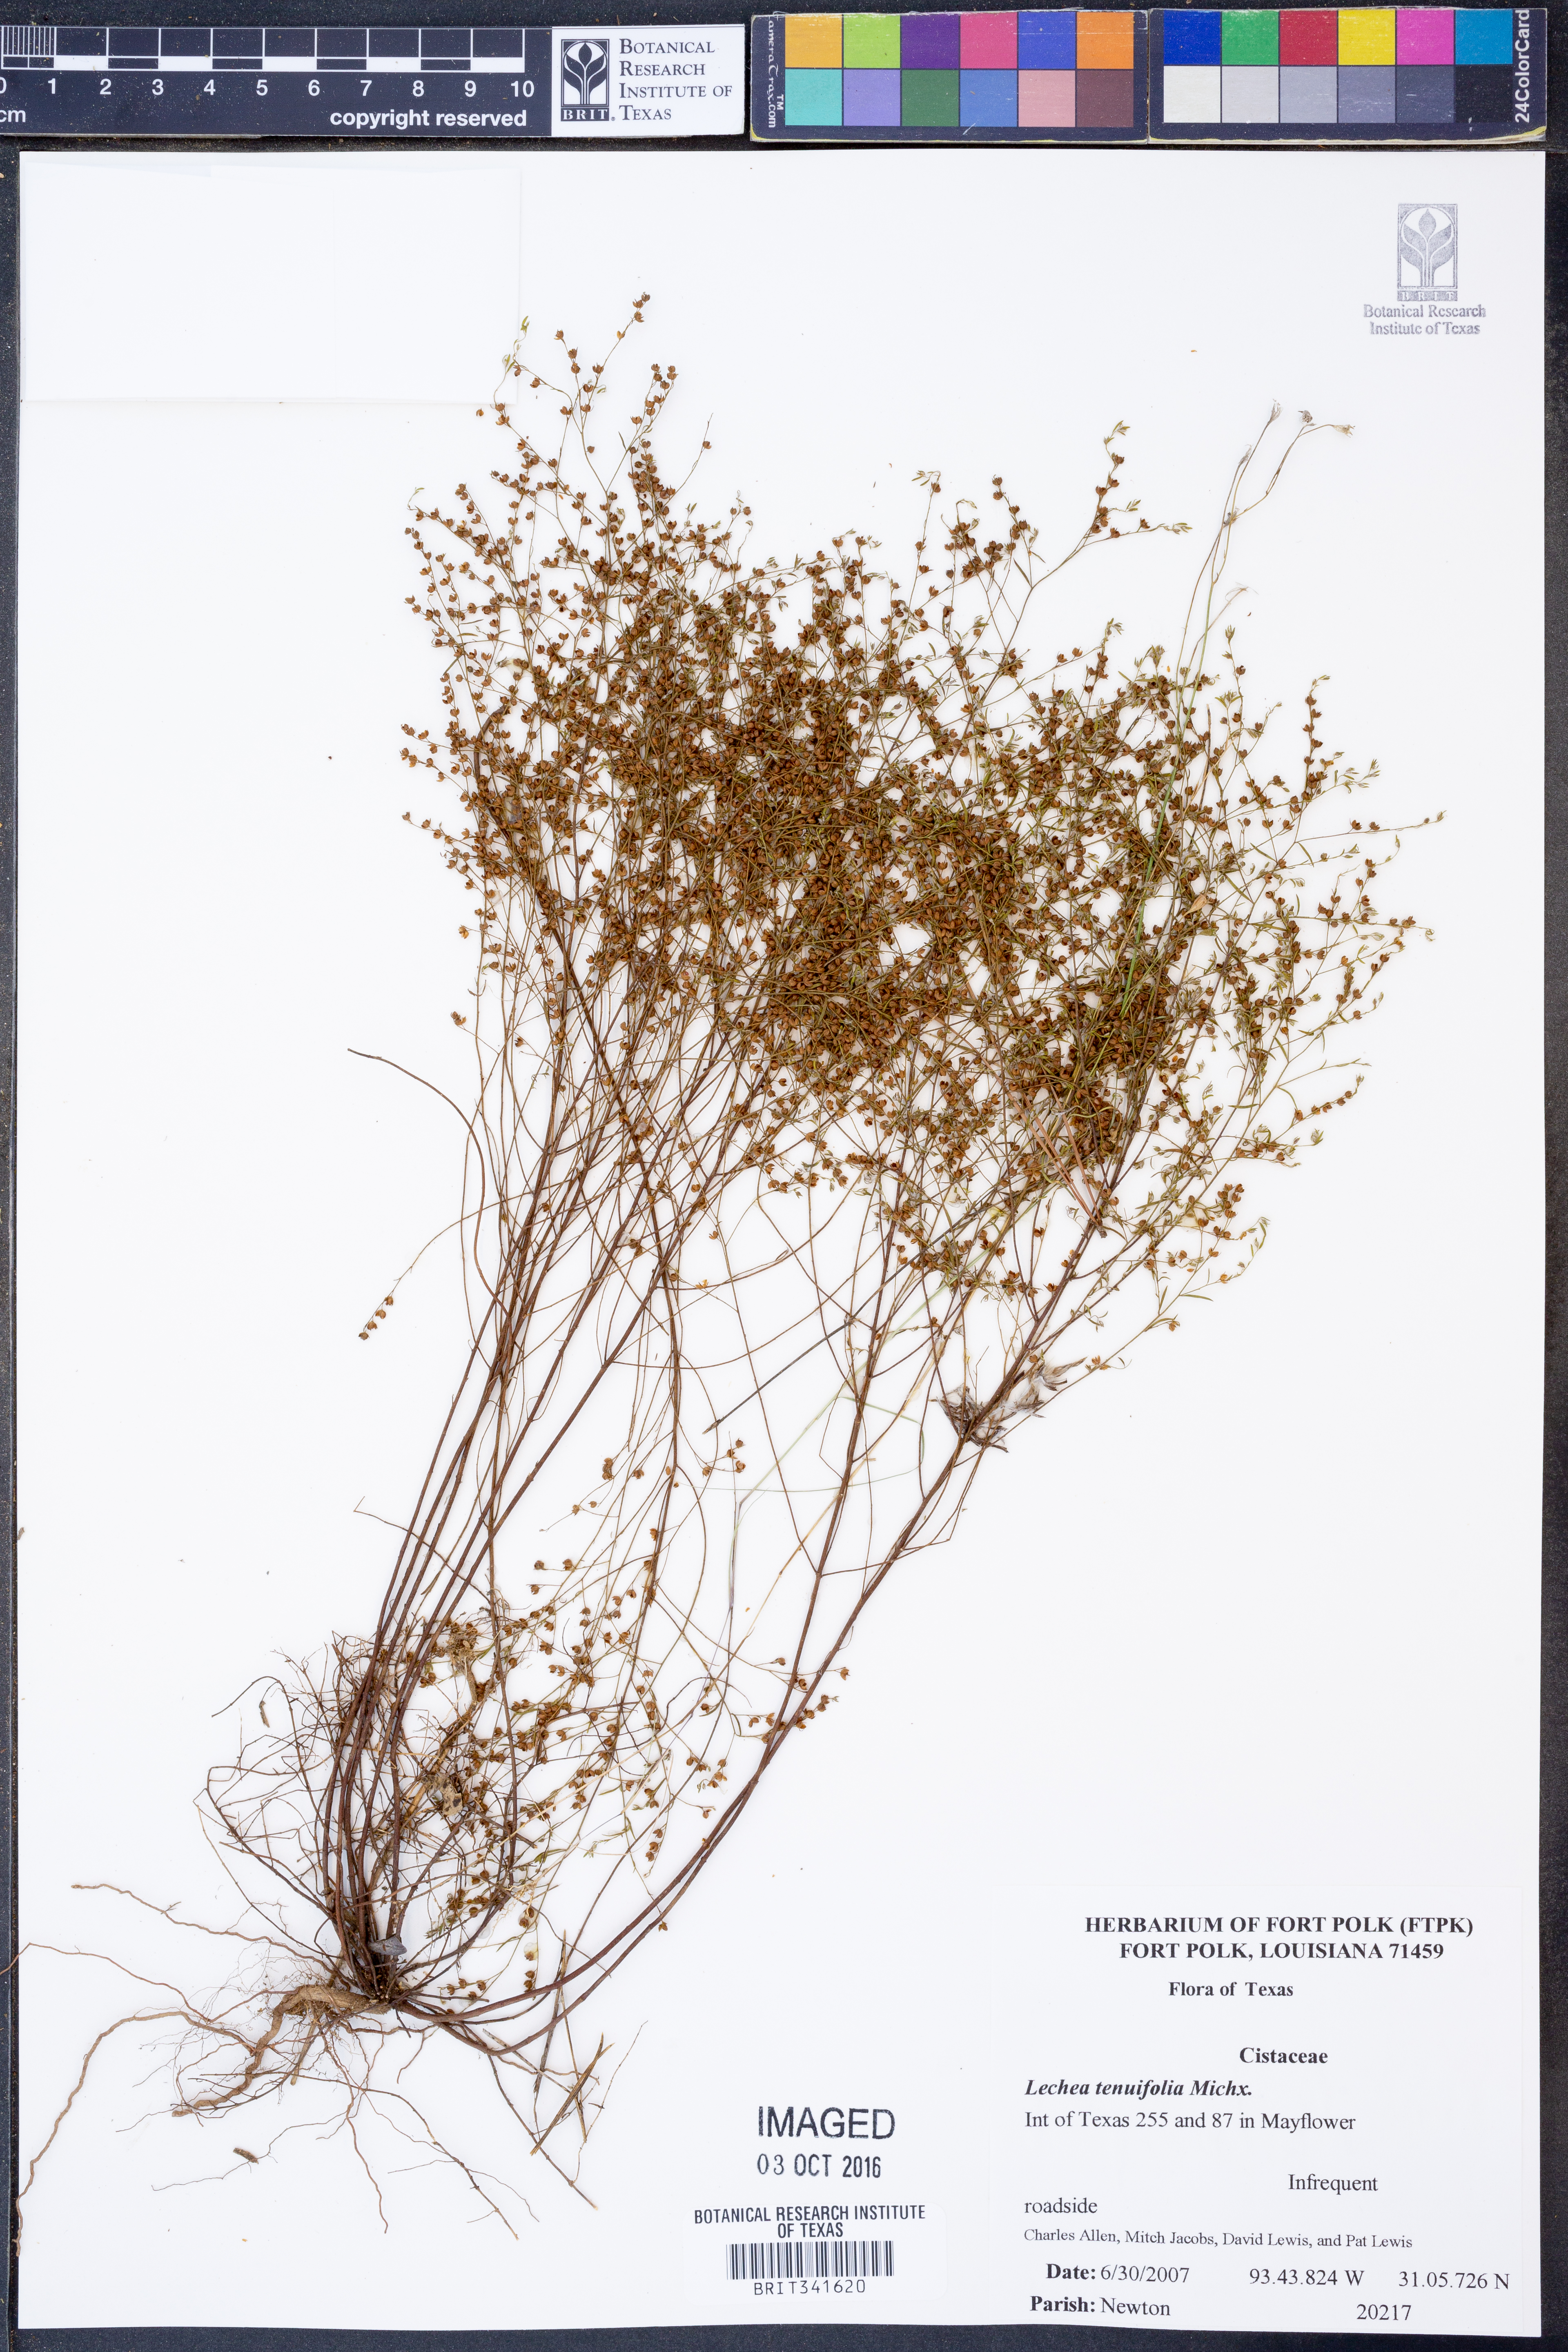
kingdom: Plantae
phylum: Tracheophyta
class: Magnoliopsida
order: Malvales
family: Cistaceae
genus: Lechea
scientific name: Lechea tenuifolia
